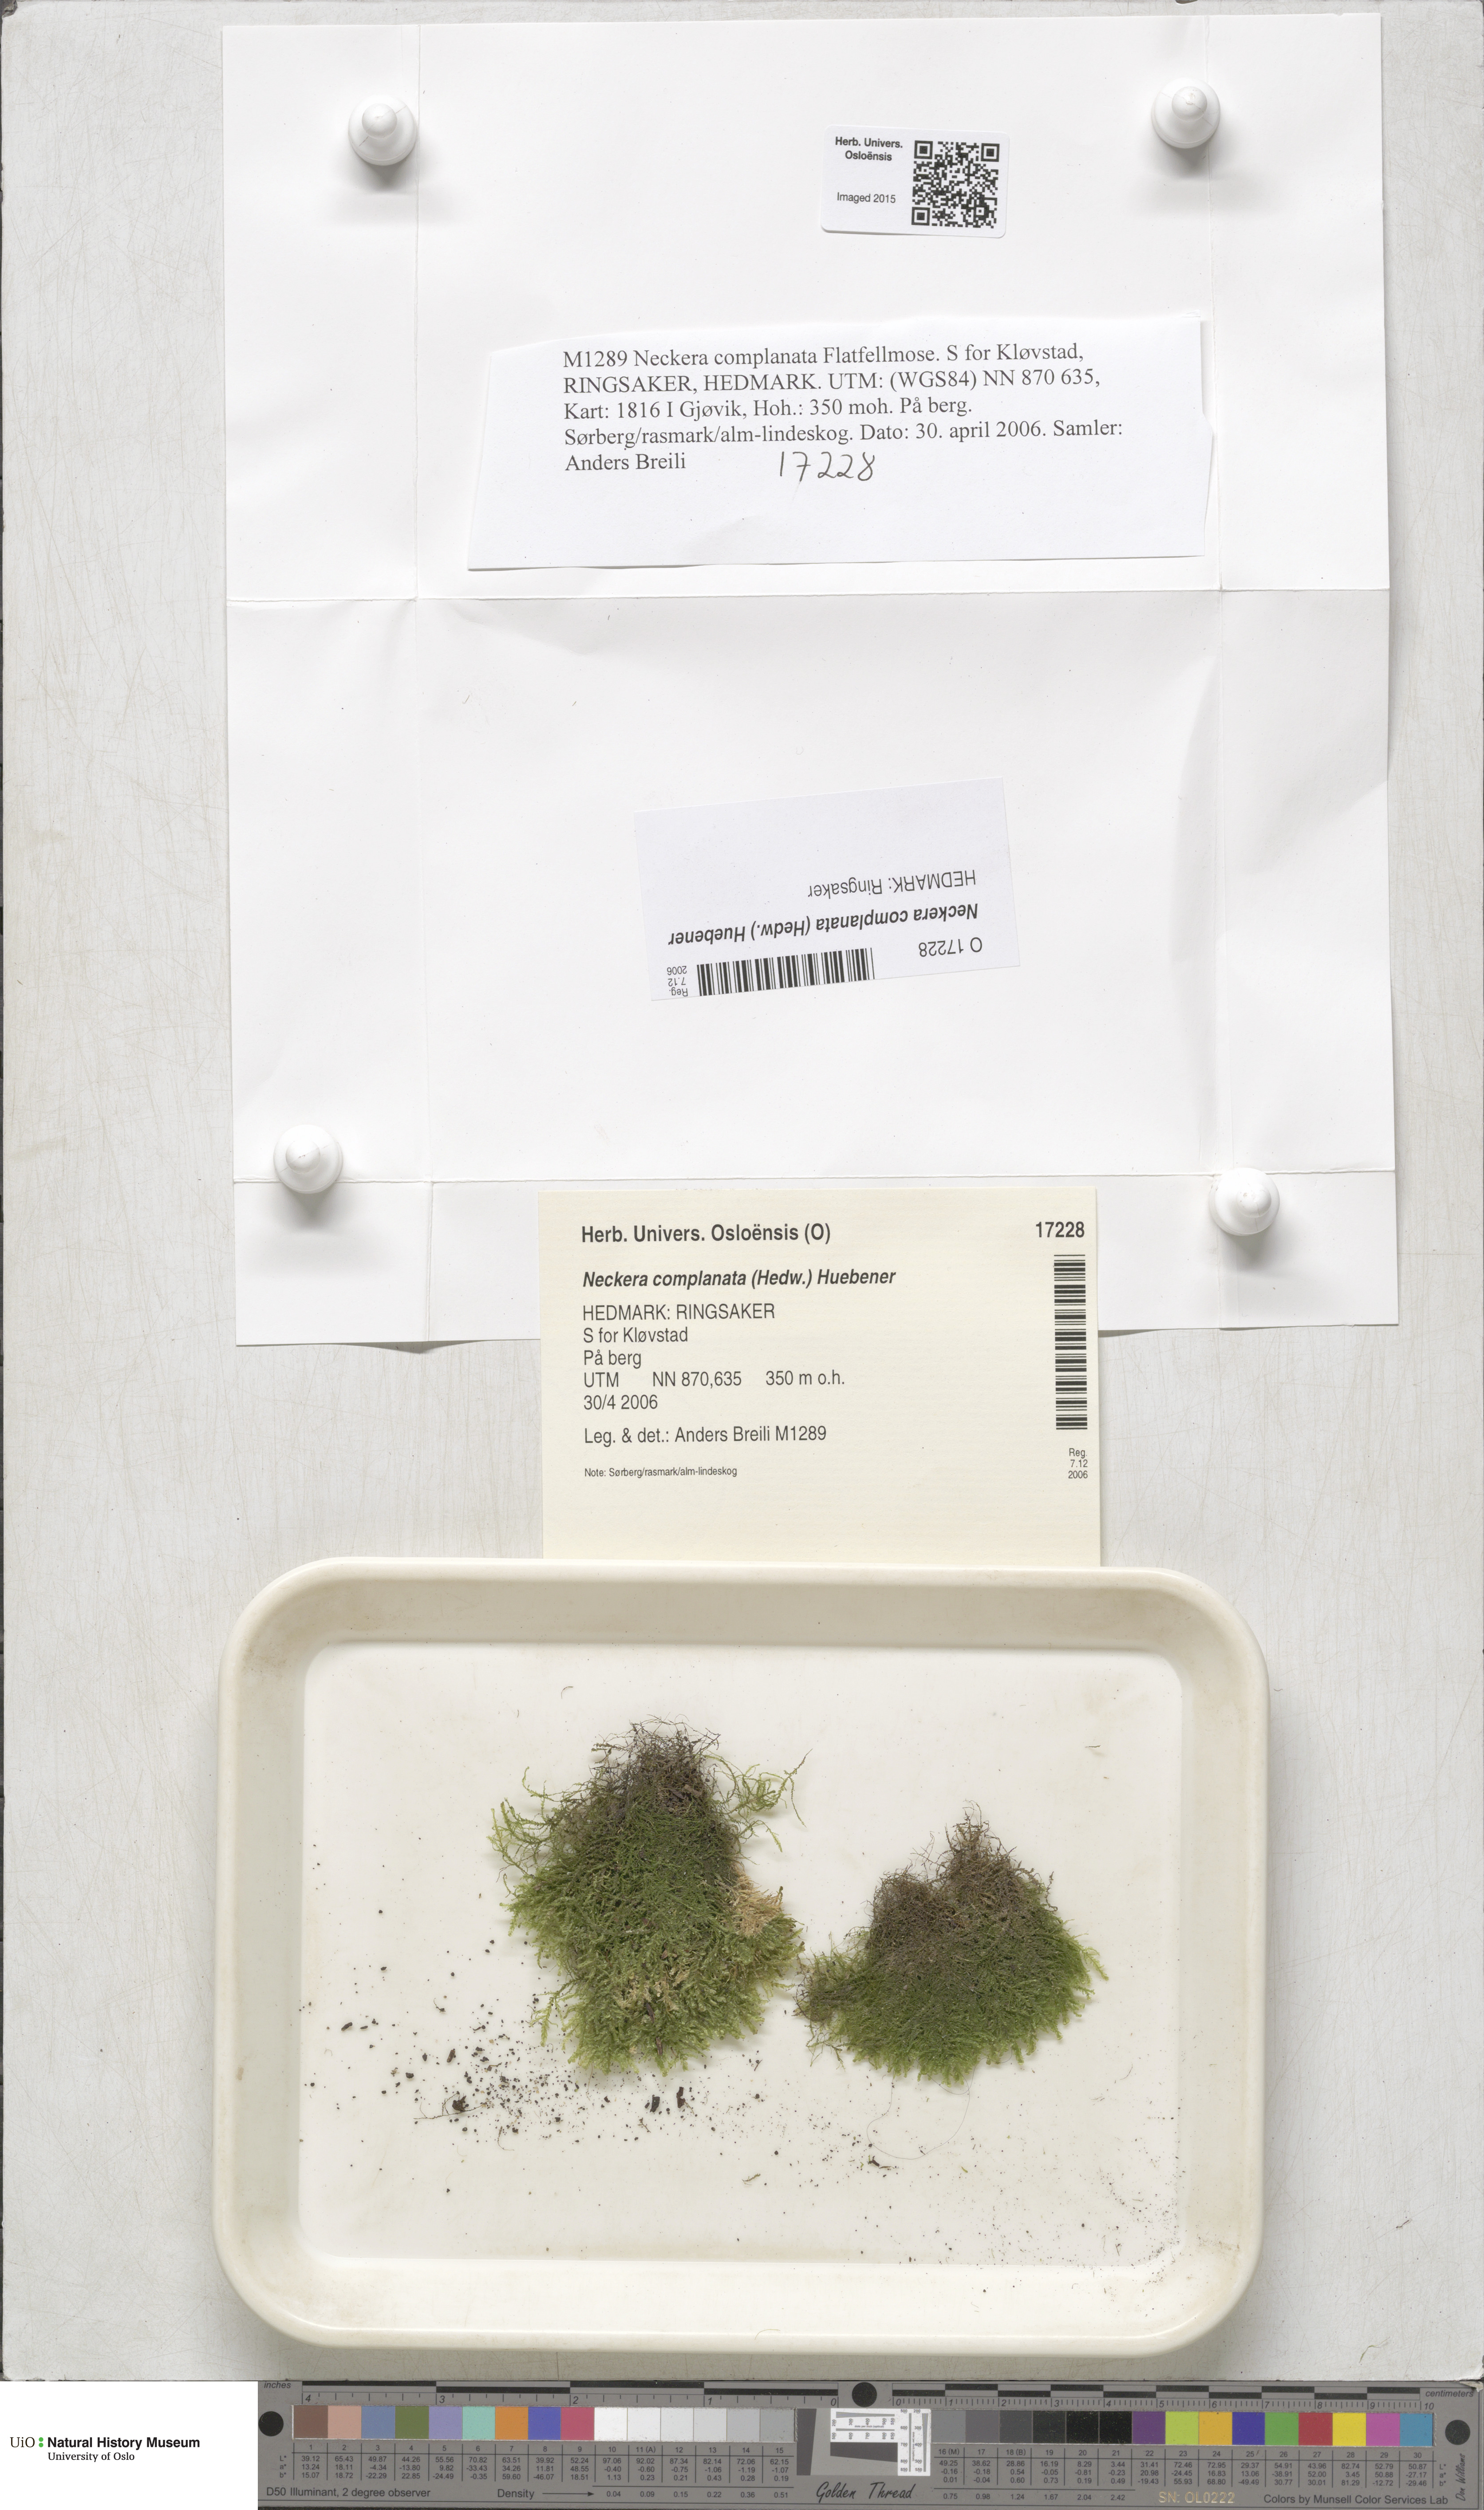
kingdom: Plantae
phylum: Bryophyta
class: Bryopsida
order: Hypnales
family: Neckeraceae
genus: Alleniella
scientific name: Alleniella complanata
